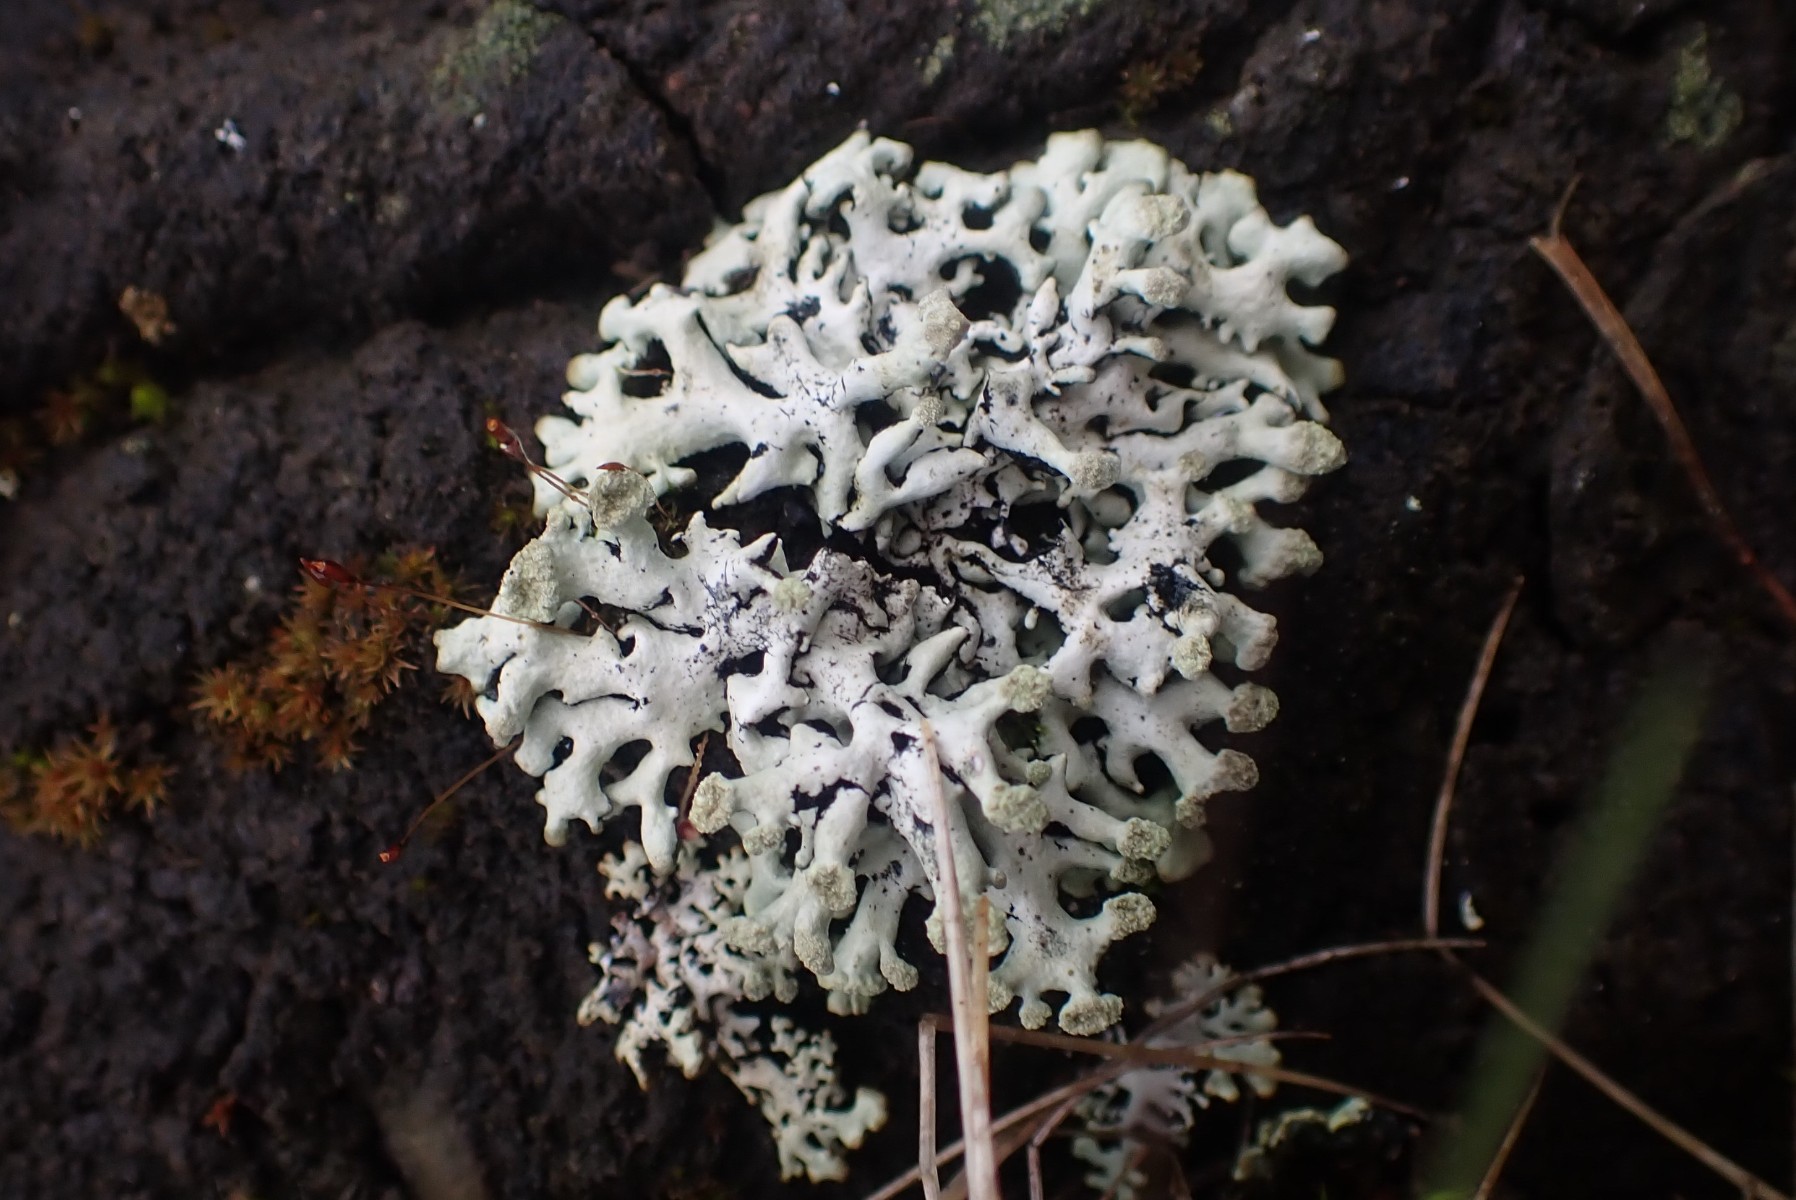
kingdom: Fungi
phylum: Ascomycota
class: Lecanoromycetes
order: Lecanorales
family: Parmeliaceae
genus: Hypogymnia
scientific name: Hypogymnia tubulosa
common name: finger-kvistlav
